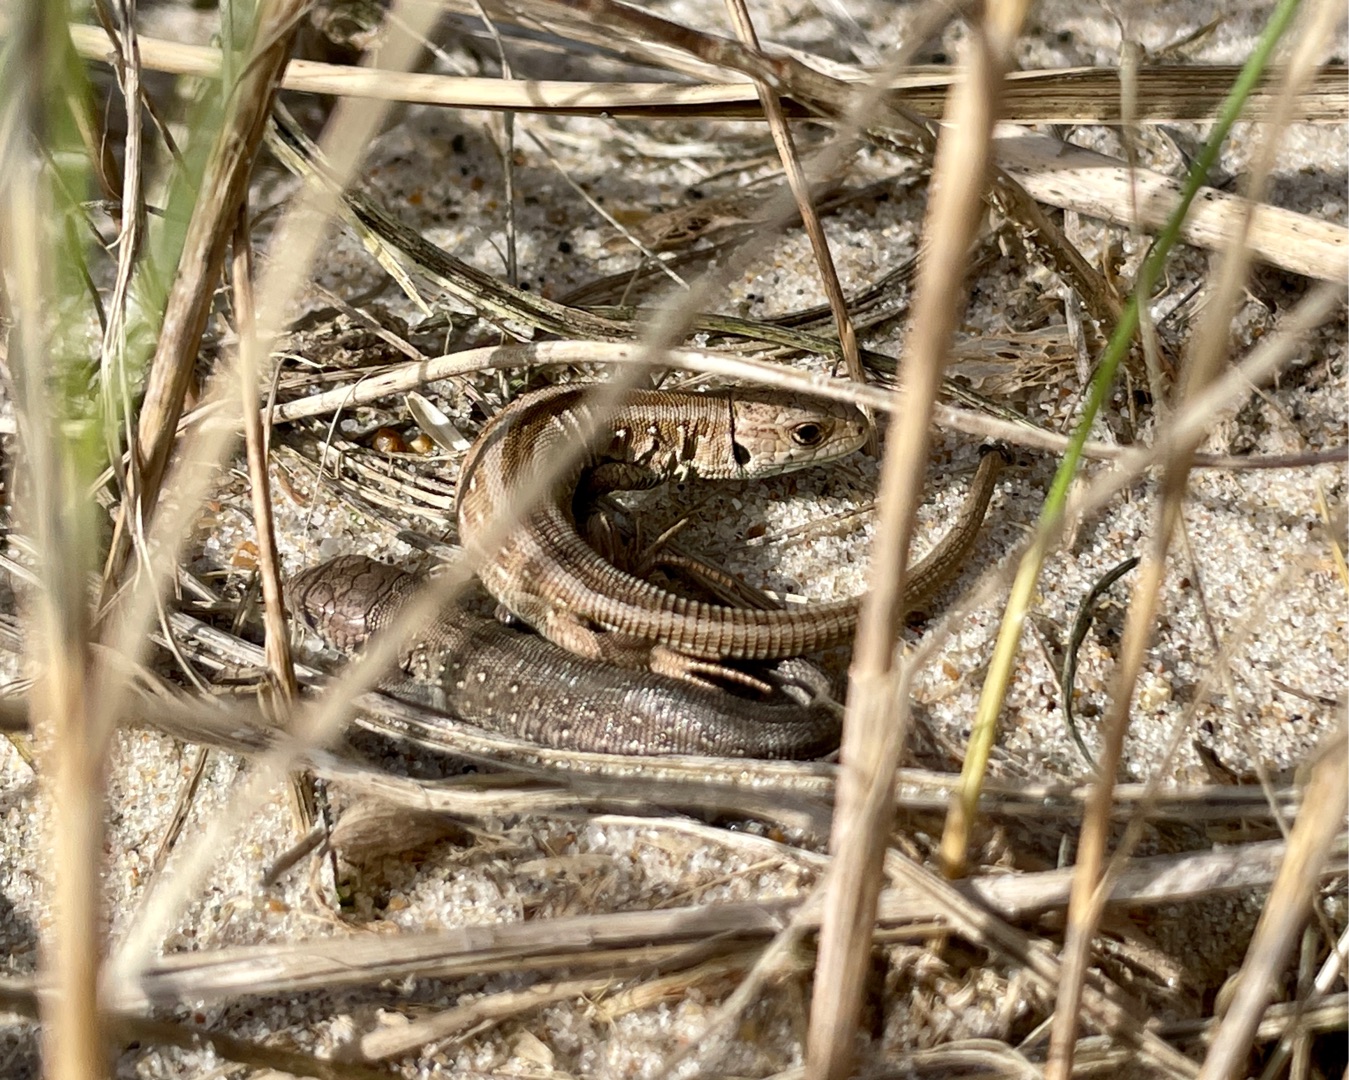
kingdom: Animalia
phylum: Chordata
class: Squamata
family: Lacertidae
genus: Lacerta
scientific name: Lacerta agilis
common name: Markfirben
